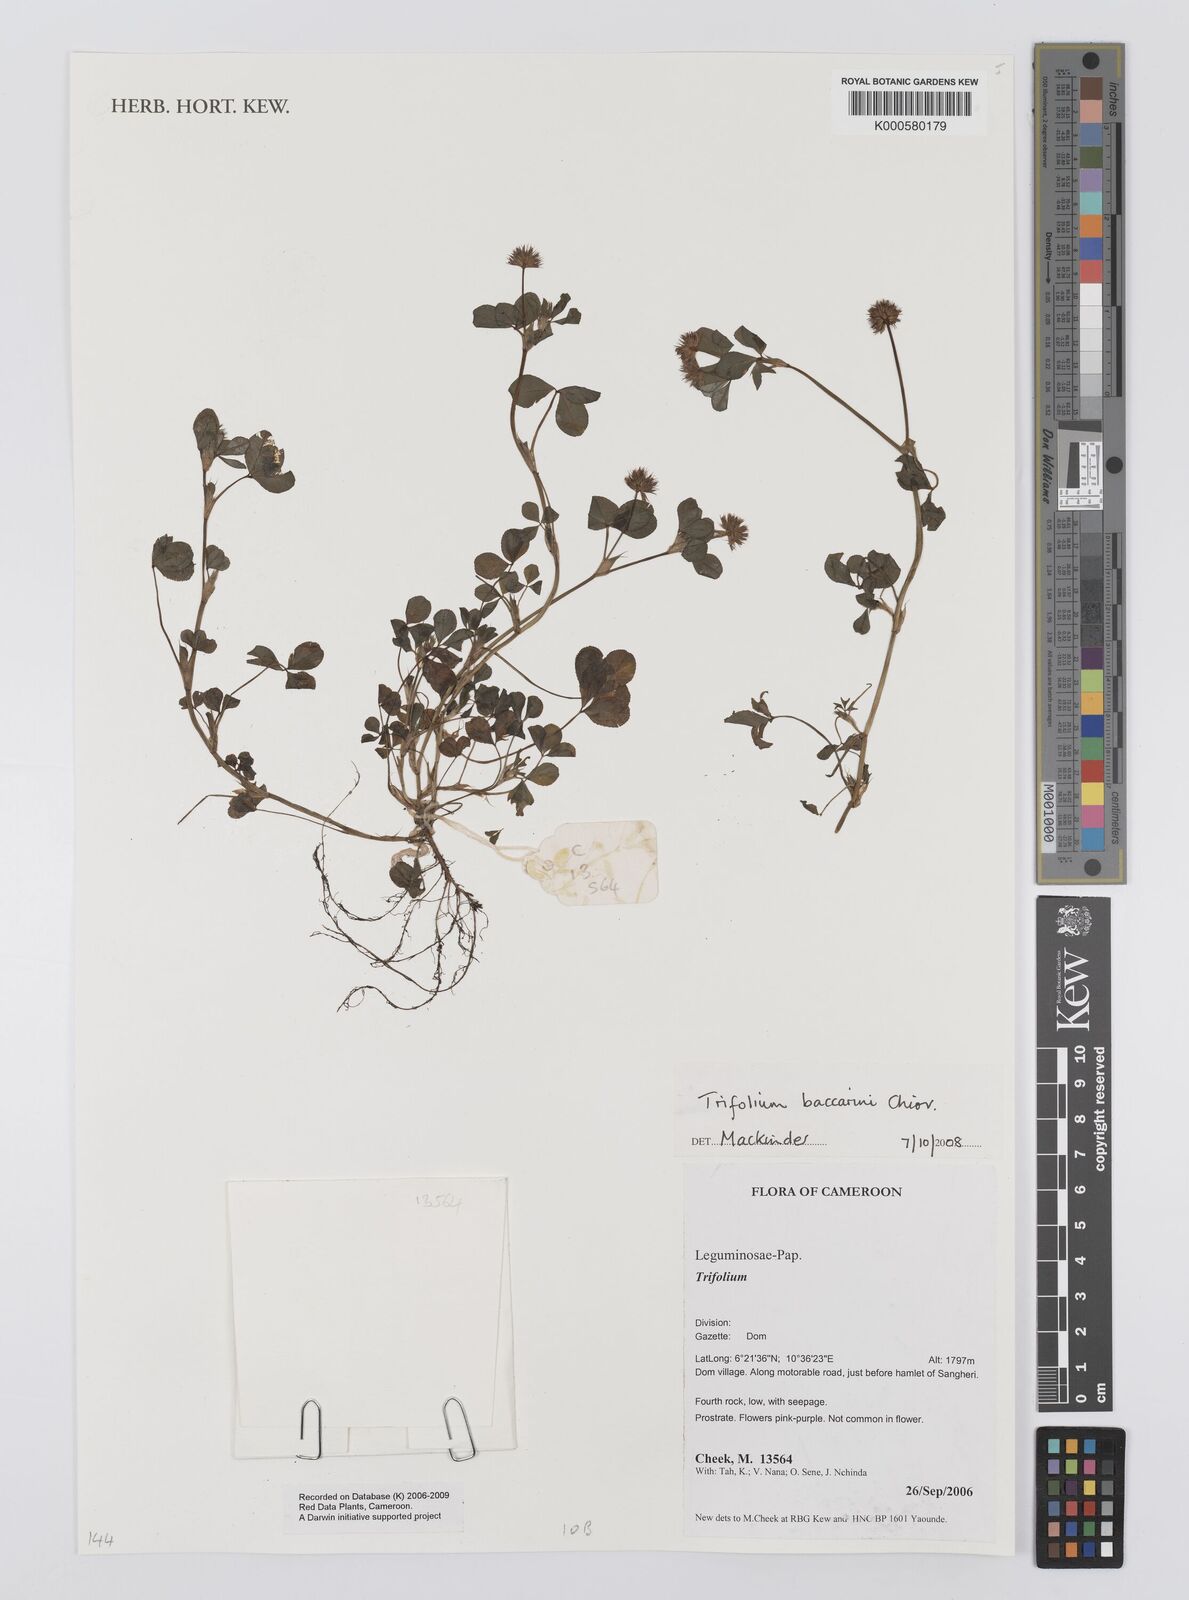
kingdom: Plantae
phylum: Tracheophyta
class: Magnoliopsida
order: Fabales
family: Fabaceae
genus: Trifolium
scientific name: Trifolium baccarinii
